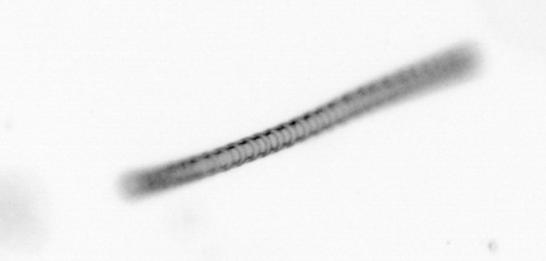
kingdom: Chromista
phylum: Ochrophyta
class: Bacillariophyceae
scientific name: Bacillariophyceae
